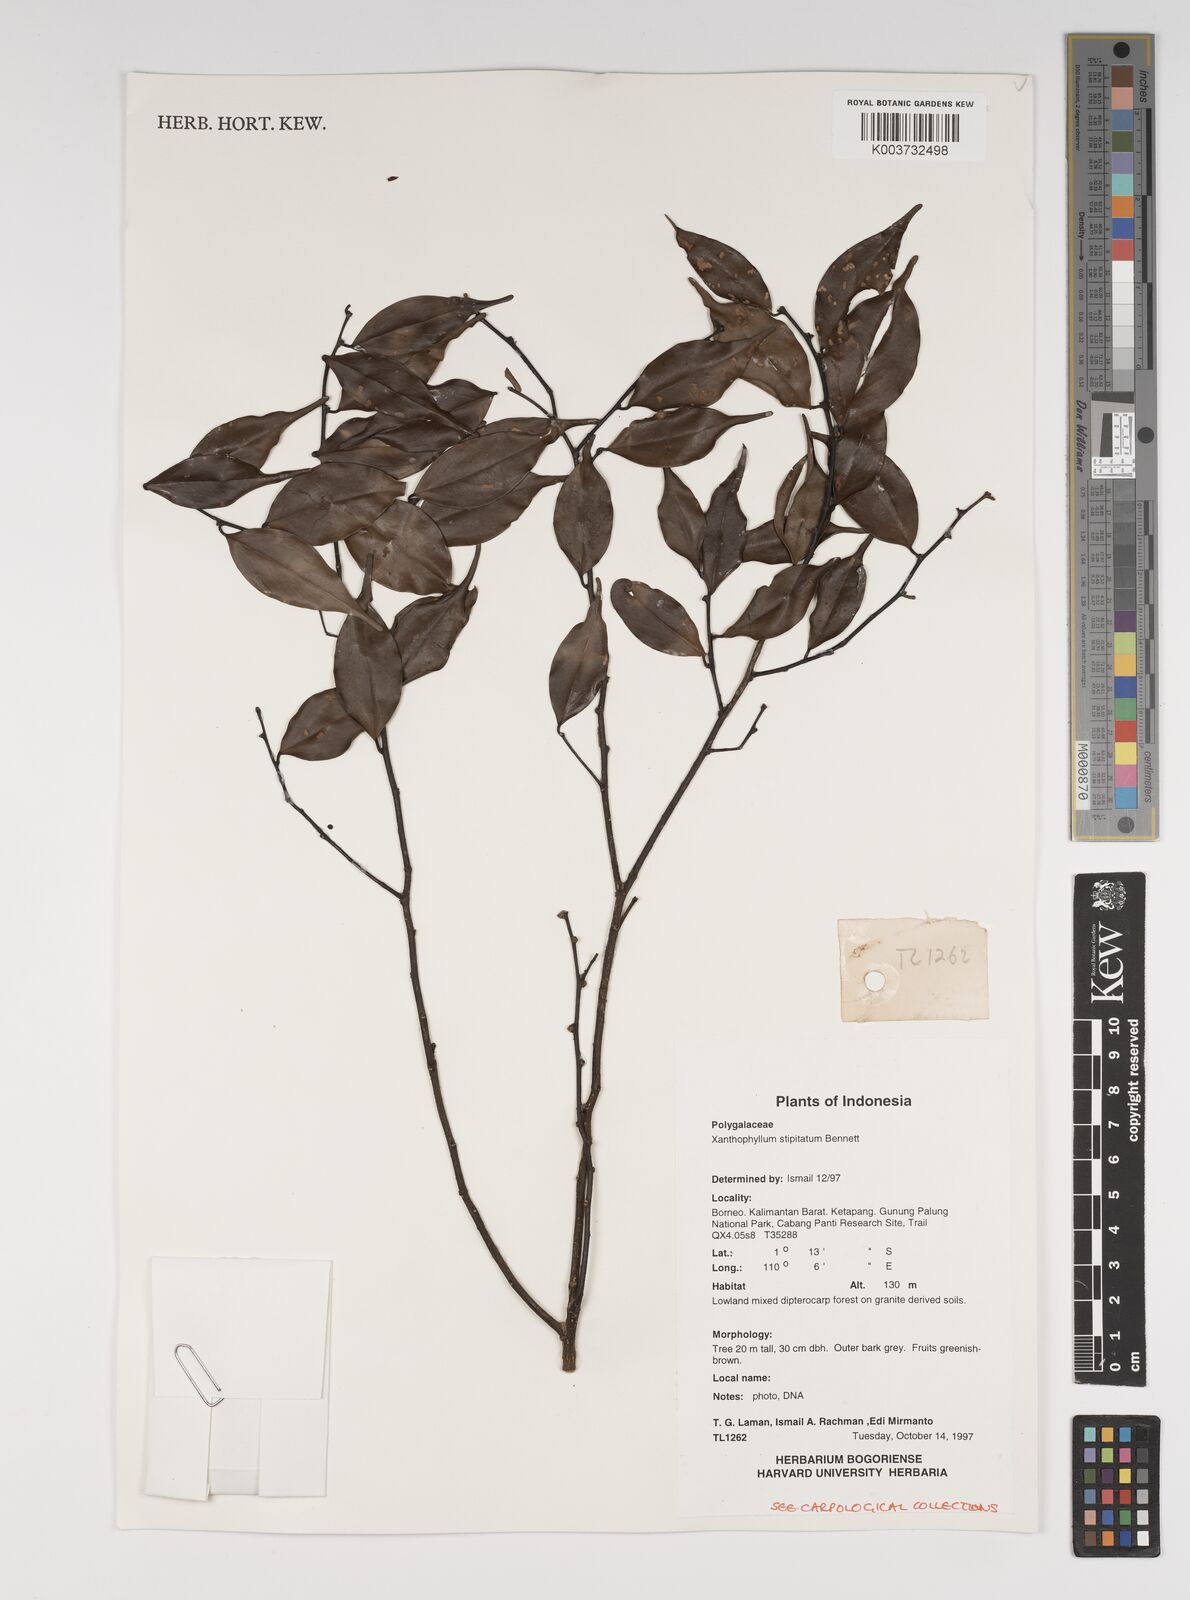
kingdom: Plantae
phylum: Tracheophyta
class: Magnoliopsida
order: Fabales
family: Polygalaceae
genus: Xanthophyllum
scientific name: Xanthophyllum stipitatum
